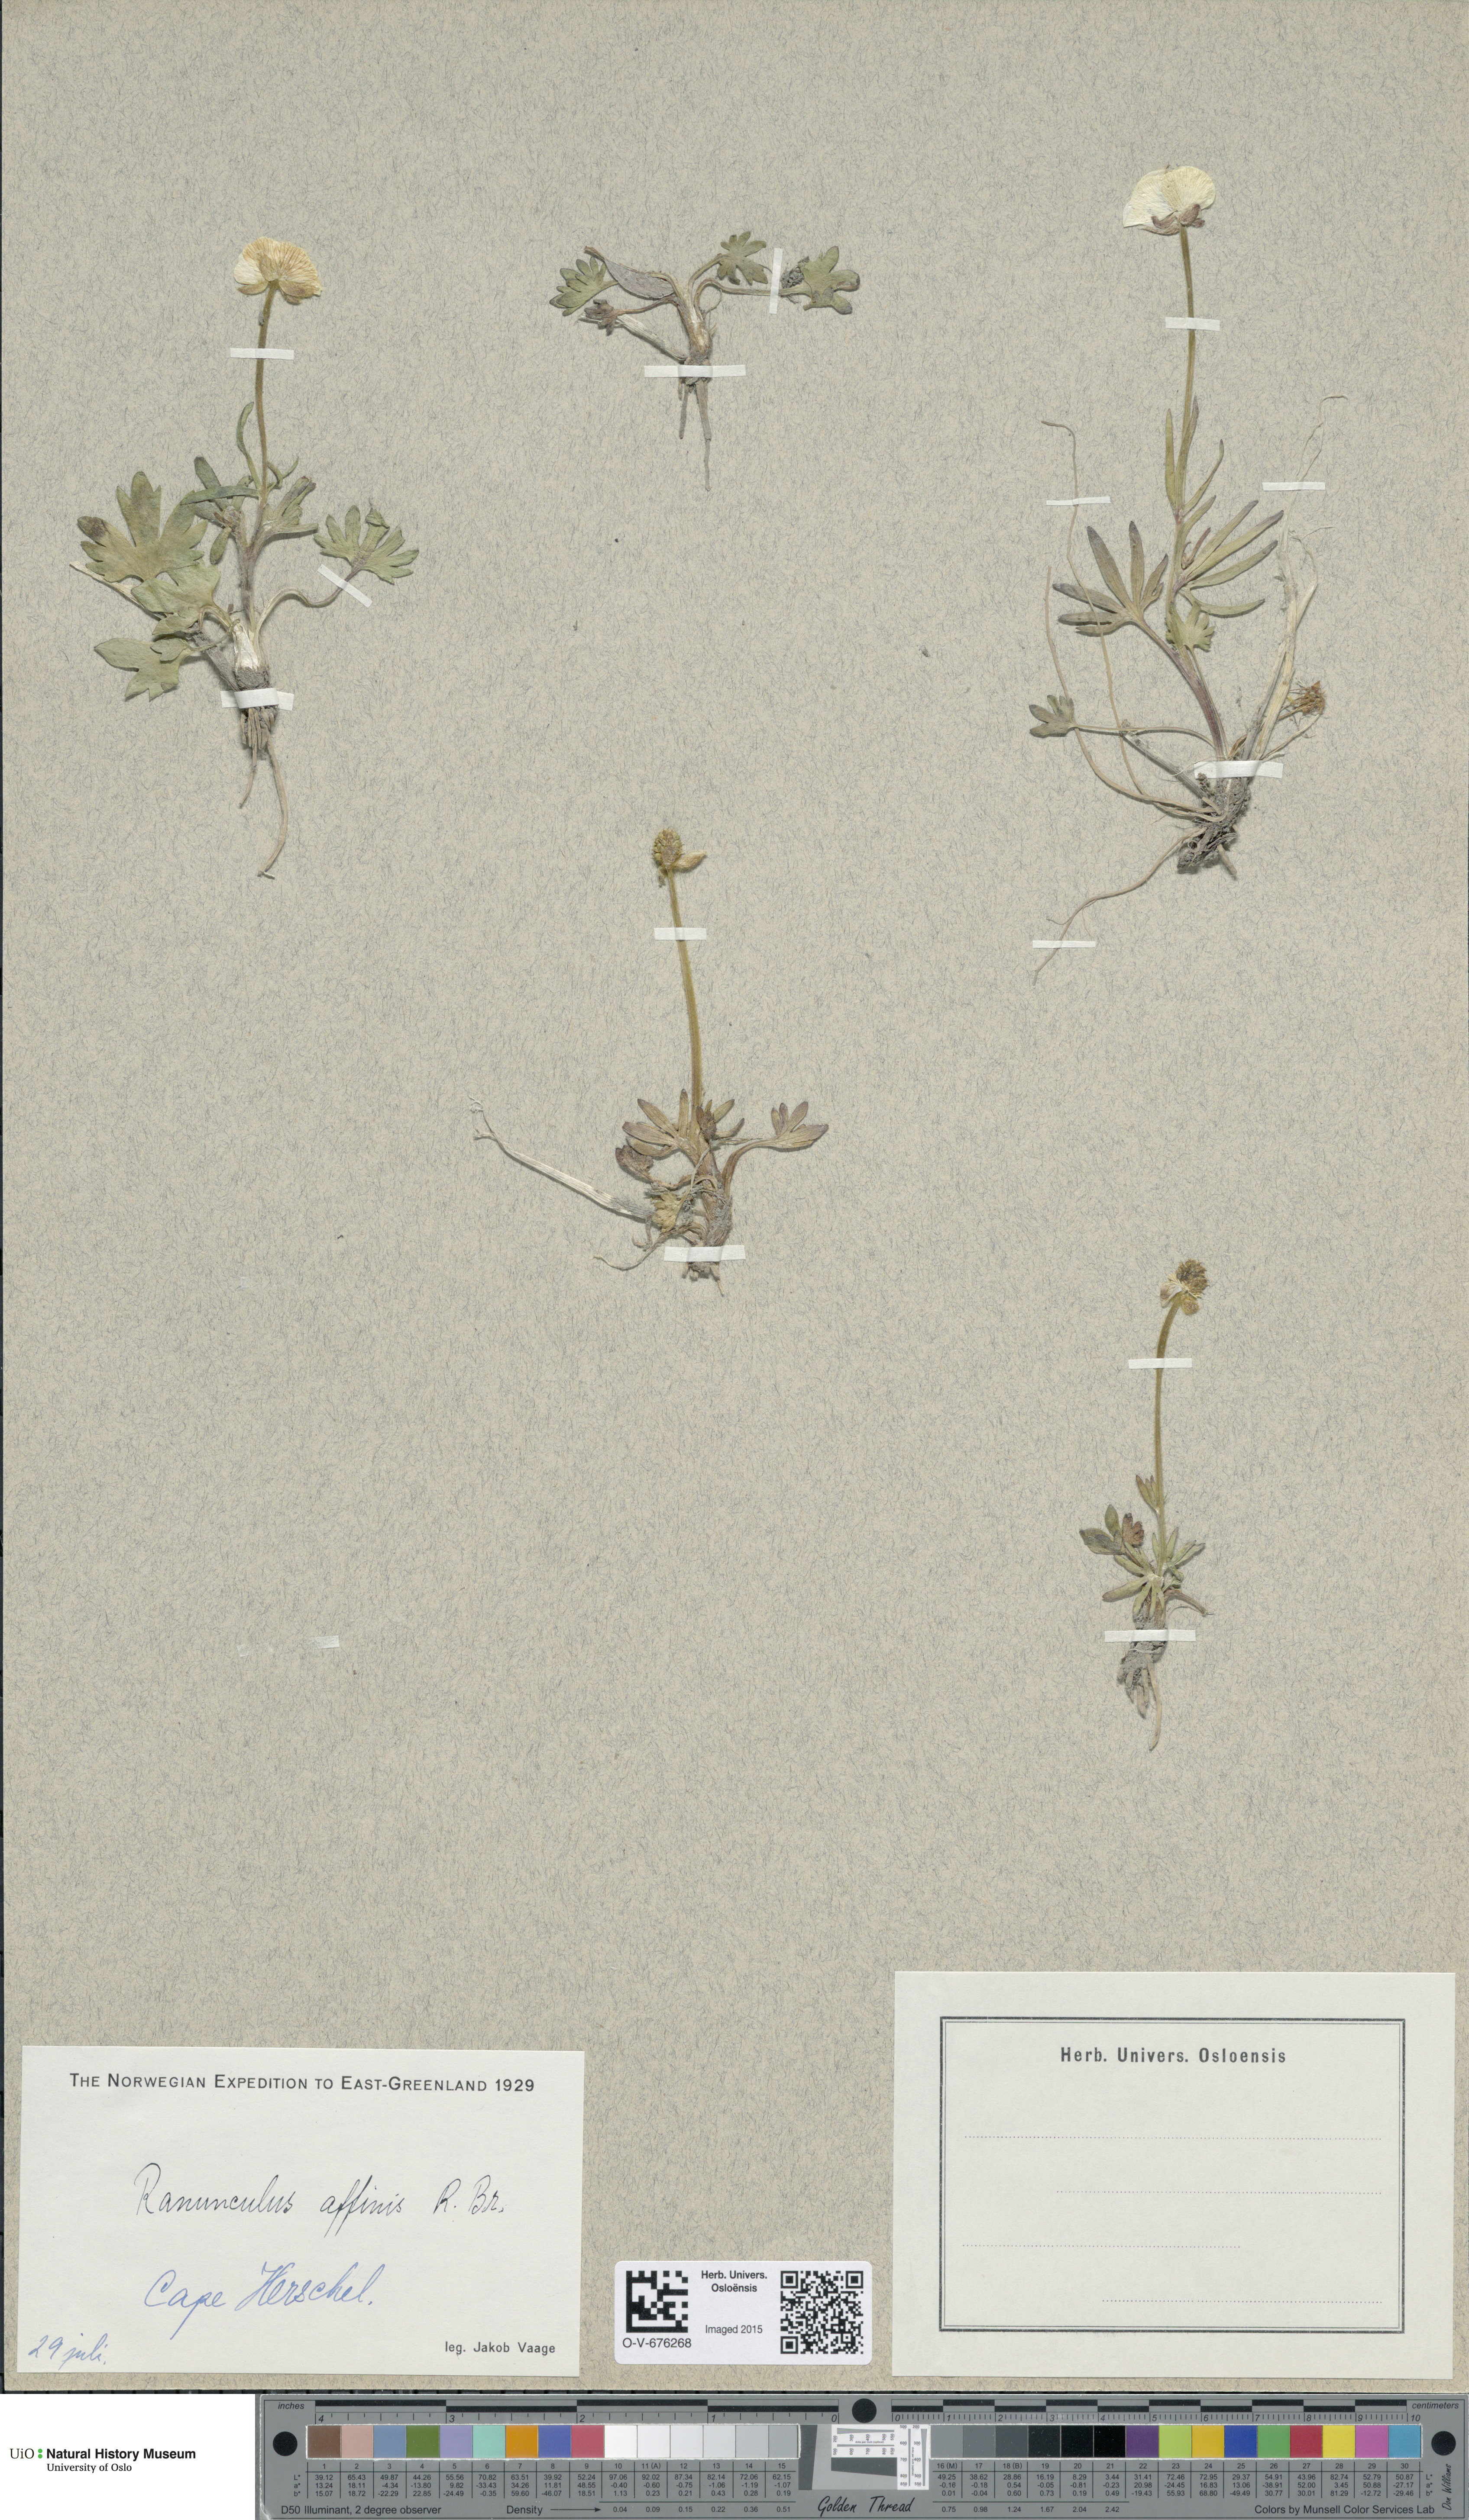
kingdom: Plantae
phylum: Tracheophyta
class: Magnoliopsida
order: Ranunculales
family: Ranunculaceae
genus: Ranunculus
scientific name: Ranunculus arcticus
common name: Bird's-foot buttercup
